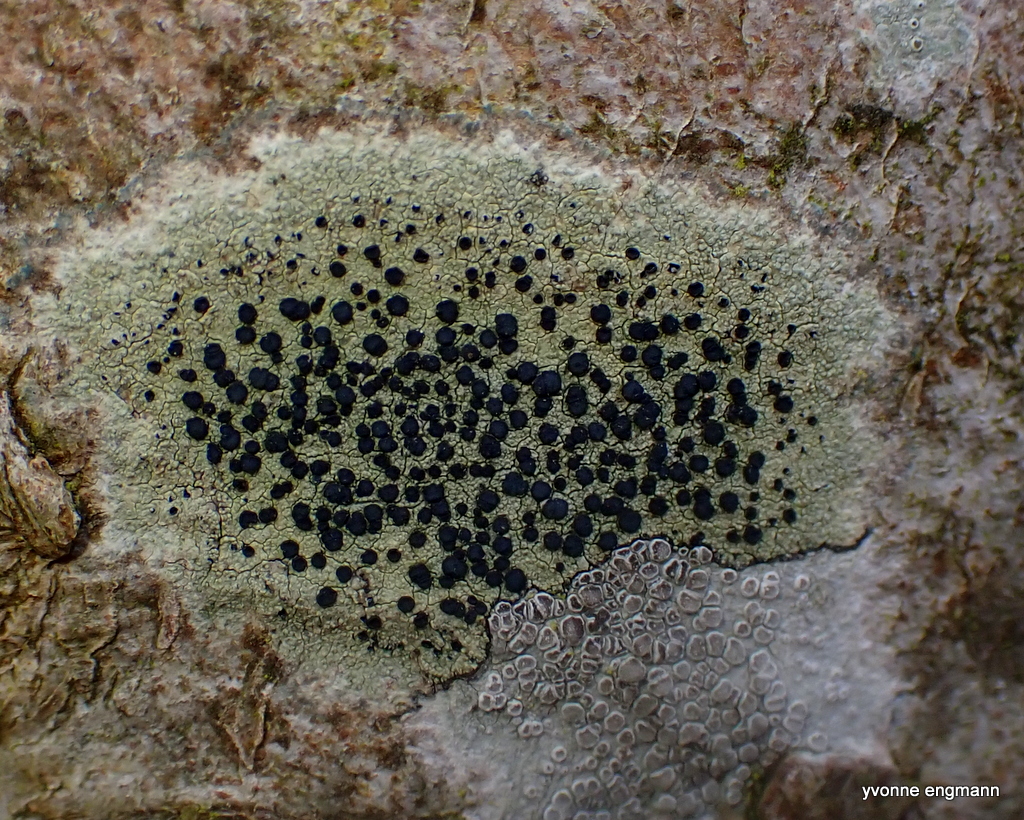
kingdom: Fungi
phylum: Ascomycota
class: Lecanoromycetes
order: Lecanorales
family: Lecanoraceae
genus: Lecidella
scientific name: Lecidella elaeochroma
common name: grågrøn skivelav
